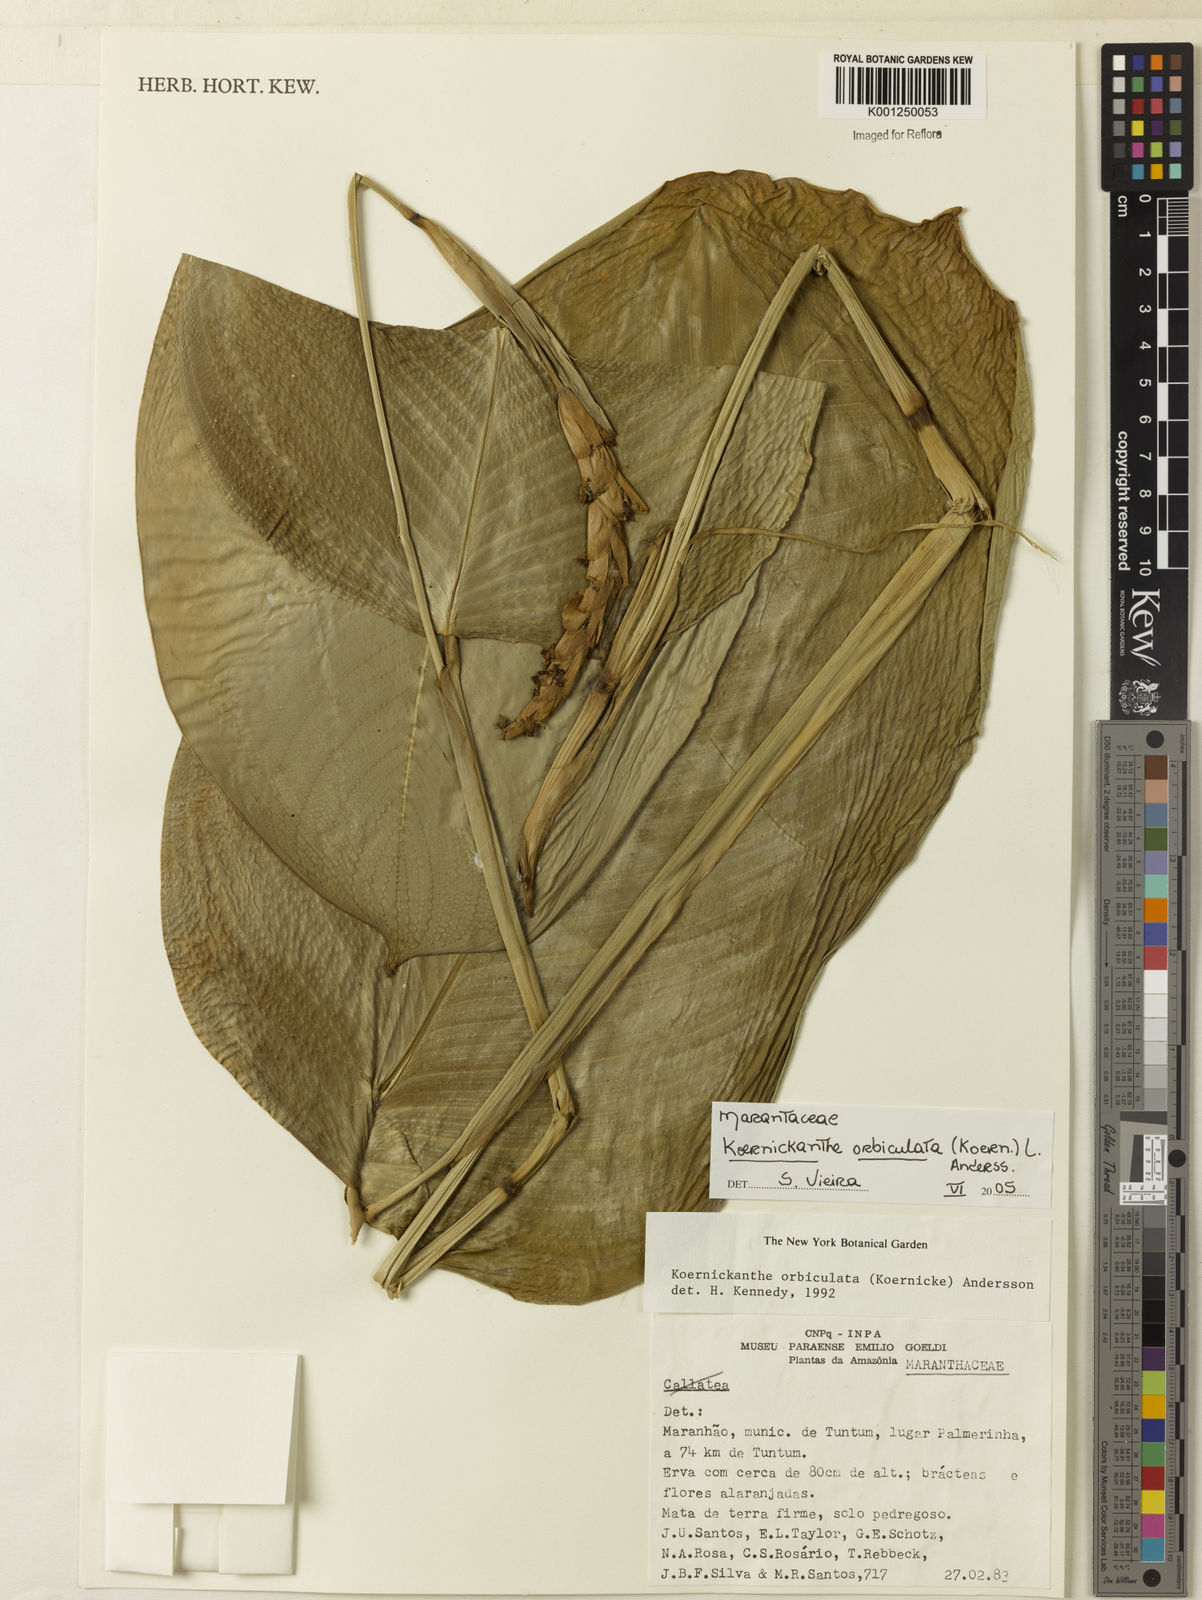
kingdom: Plantae
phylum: Tracheophyta
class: Liliopsida
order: Zingiberales
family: Marantaceae
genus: Koernickanthe
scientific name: Koernickanthe orbiculata
